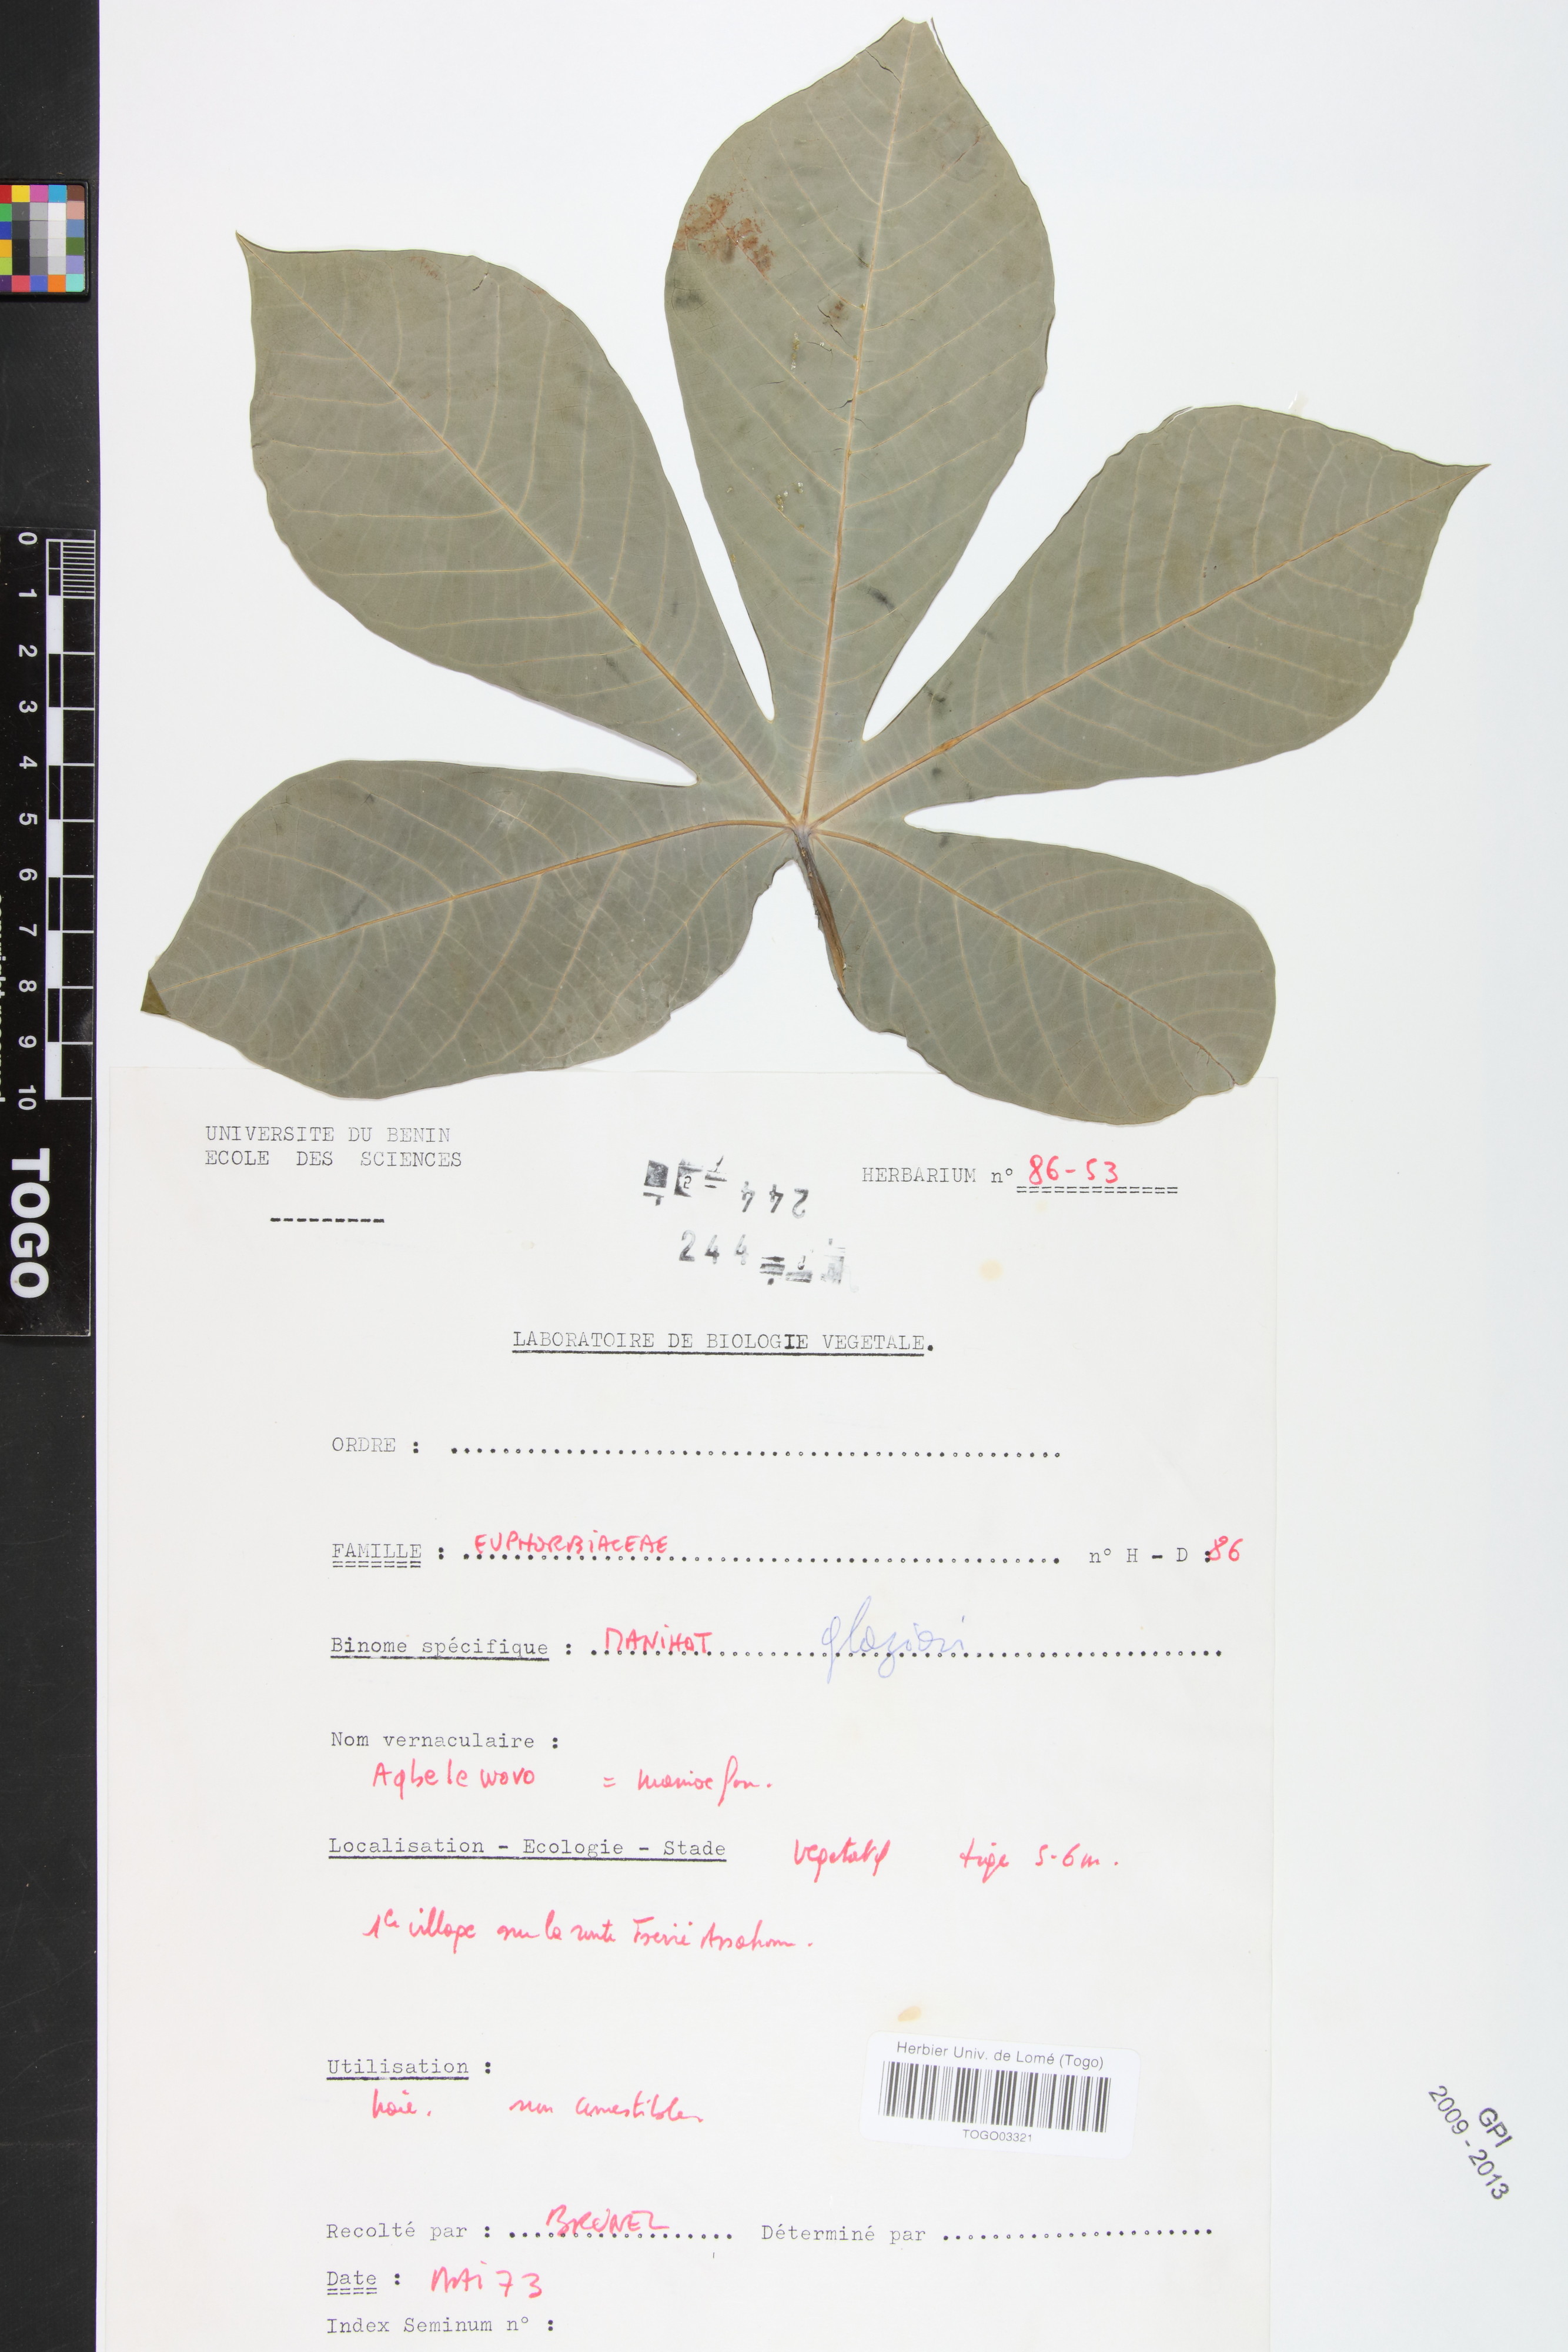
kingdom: Plantae
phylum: Tracheophyta
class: Magnoliopsida
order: Malpighiales
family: Euphorbiaceae
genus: Manihot
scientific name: Manihot carthagenensis
